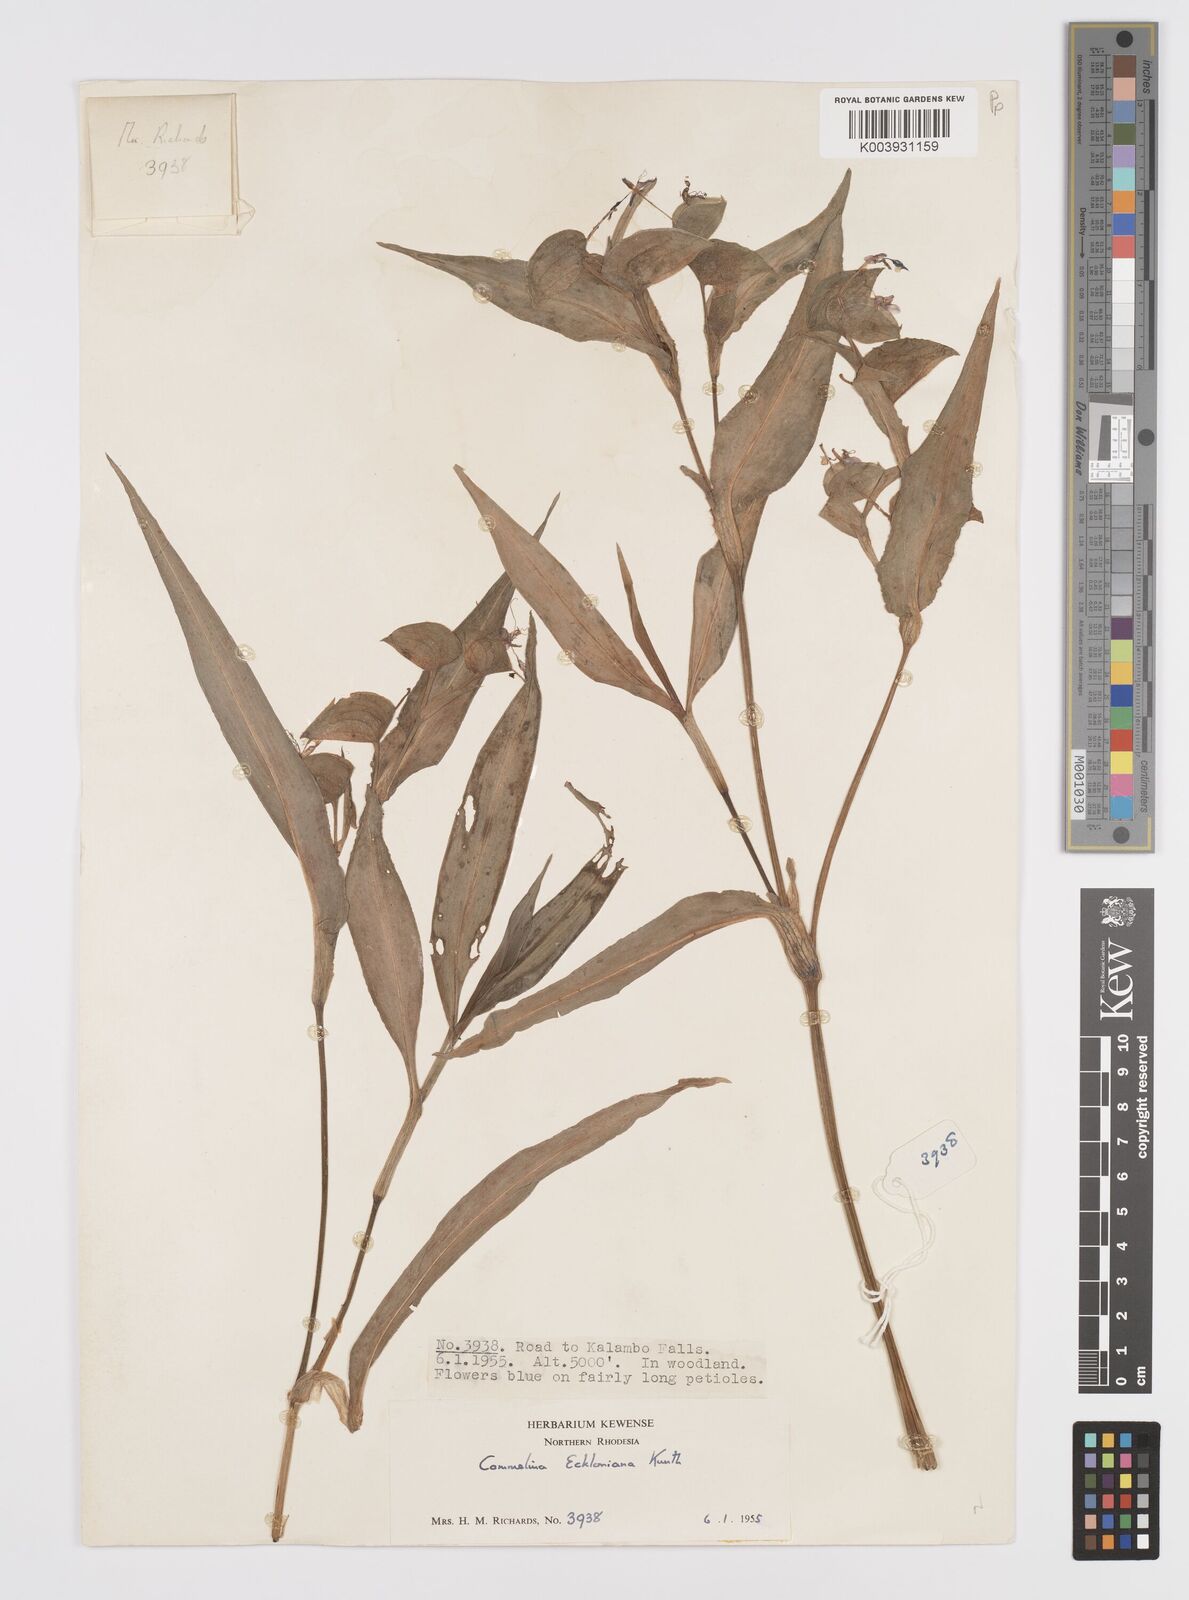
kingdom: Plantae
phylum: Tracheophyta
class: Liliopsida
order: Commelinales
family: Commelinaceae
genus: Commelina
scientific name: Commelina eckloniana
